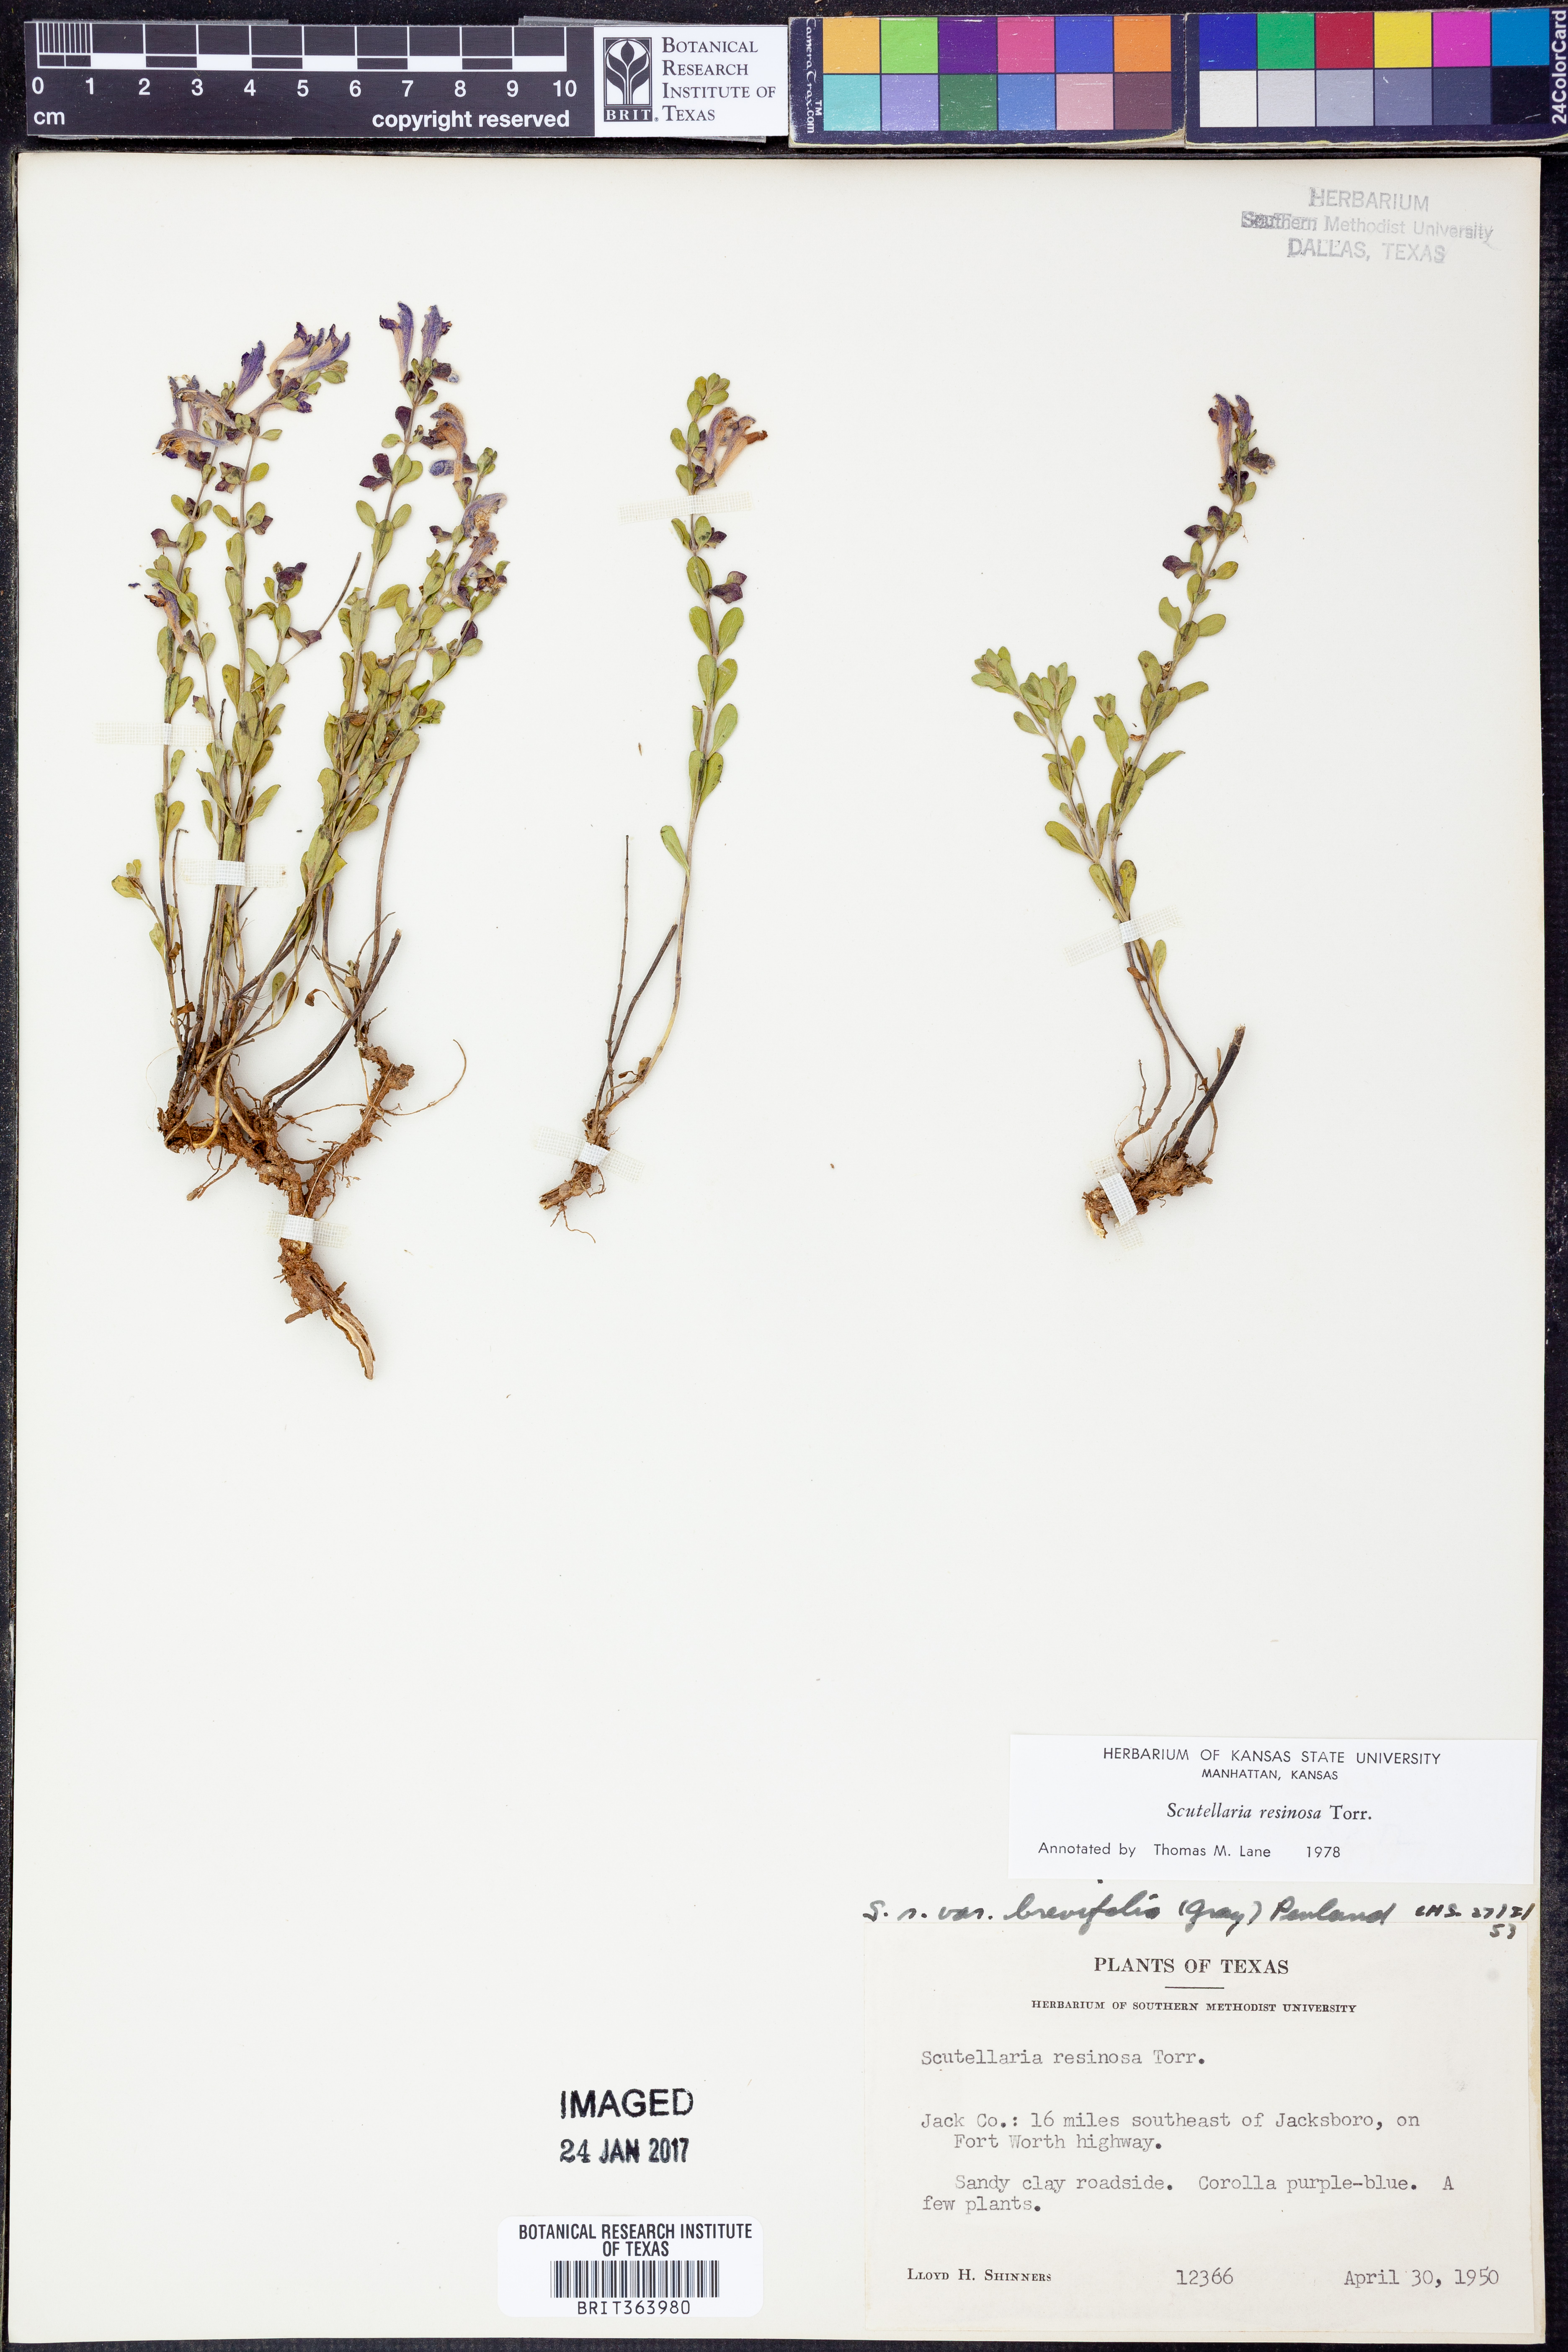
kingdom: Plantae
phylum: Tracheophyta
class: Magnoliopsida
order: Lamiales
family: Lamiaceae
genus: Scutellaria
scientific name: Scutellaria resinosa
